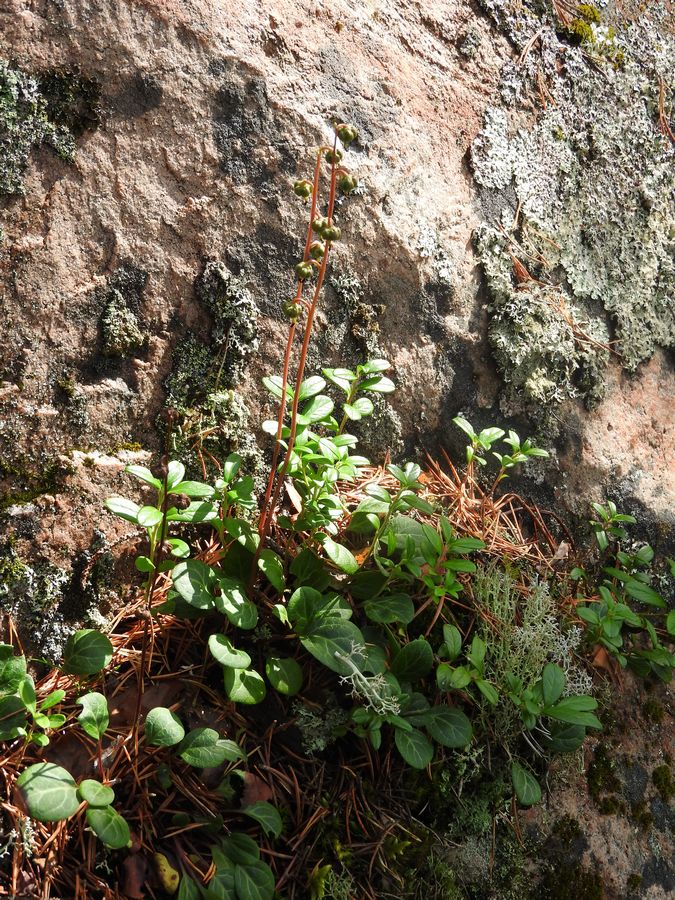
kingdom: Plantae
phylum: Tracheophyta
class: Magnoliopsida
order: Ericales
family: Ericaceae
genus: Pyrola
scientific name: Pyrola chlorantha
